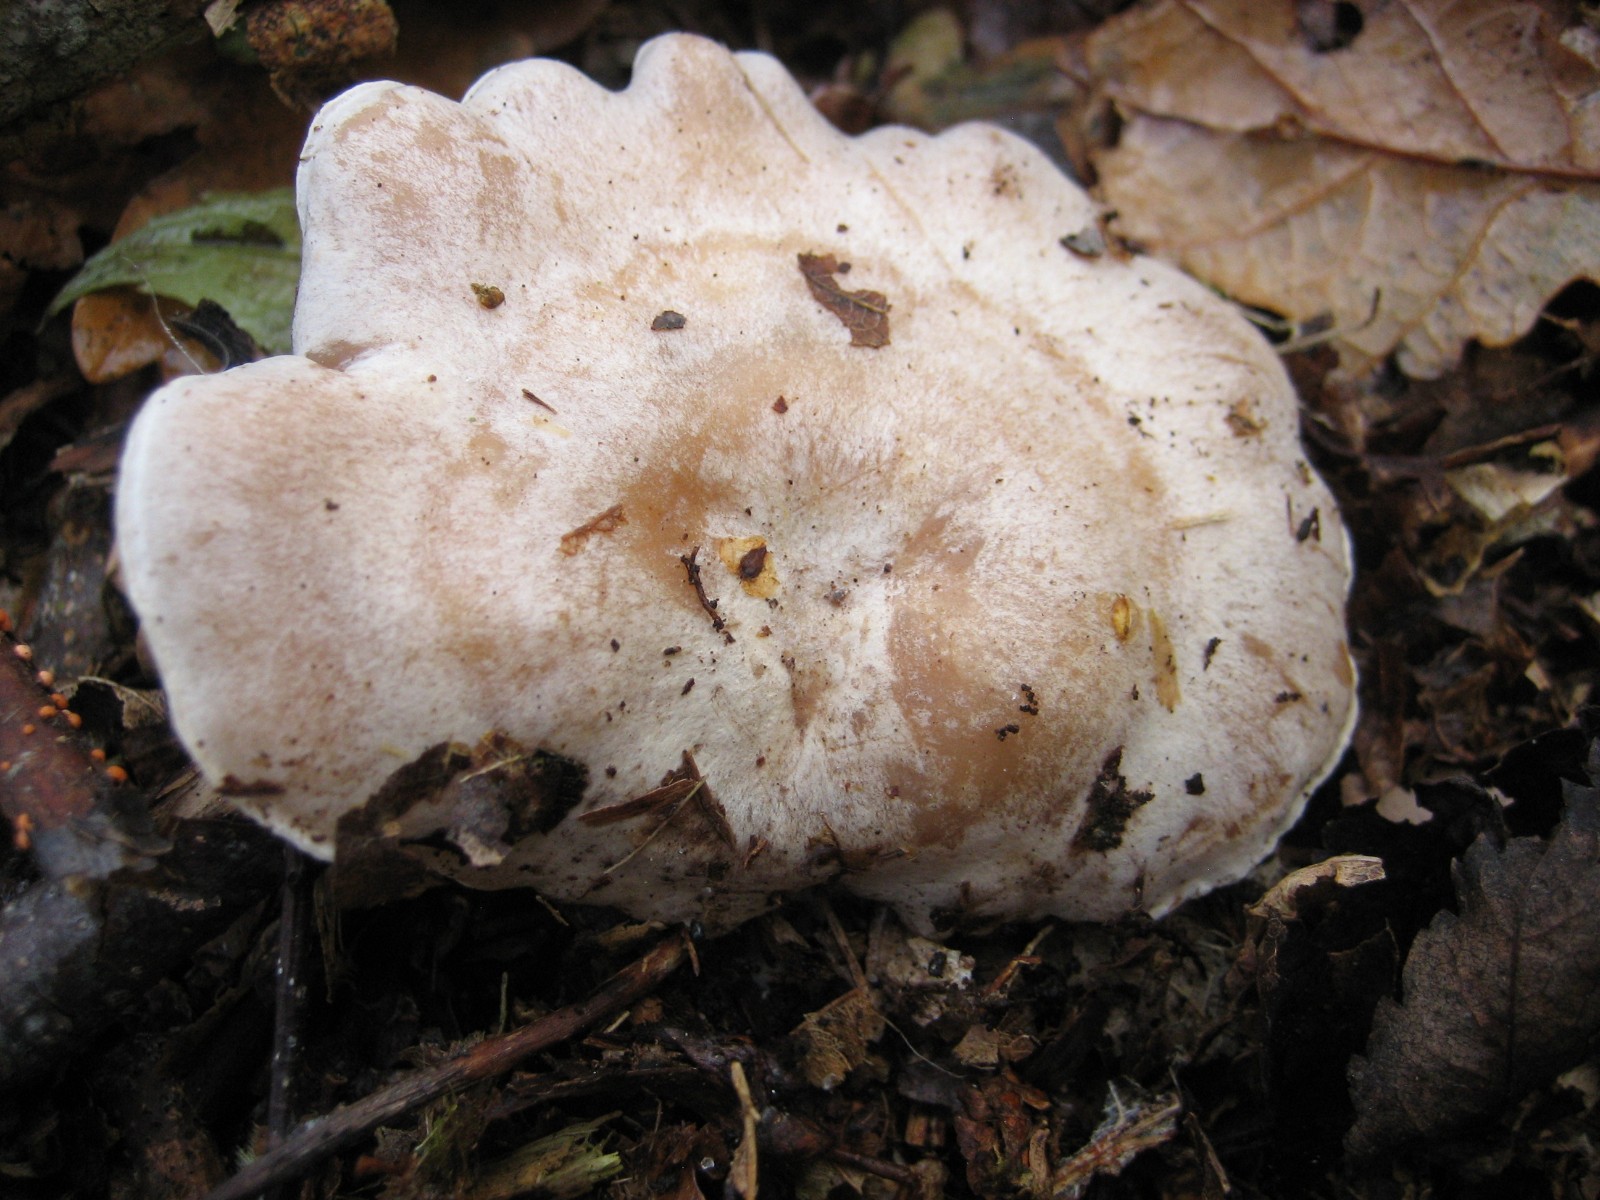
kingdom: Fungi
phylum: Basidiomycota
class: Agaricomycetes
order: Agaricales
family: Tricholomataceae
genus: Clitocybe
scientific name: Clitocybe phyllophila
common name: løv-tragthat
